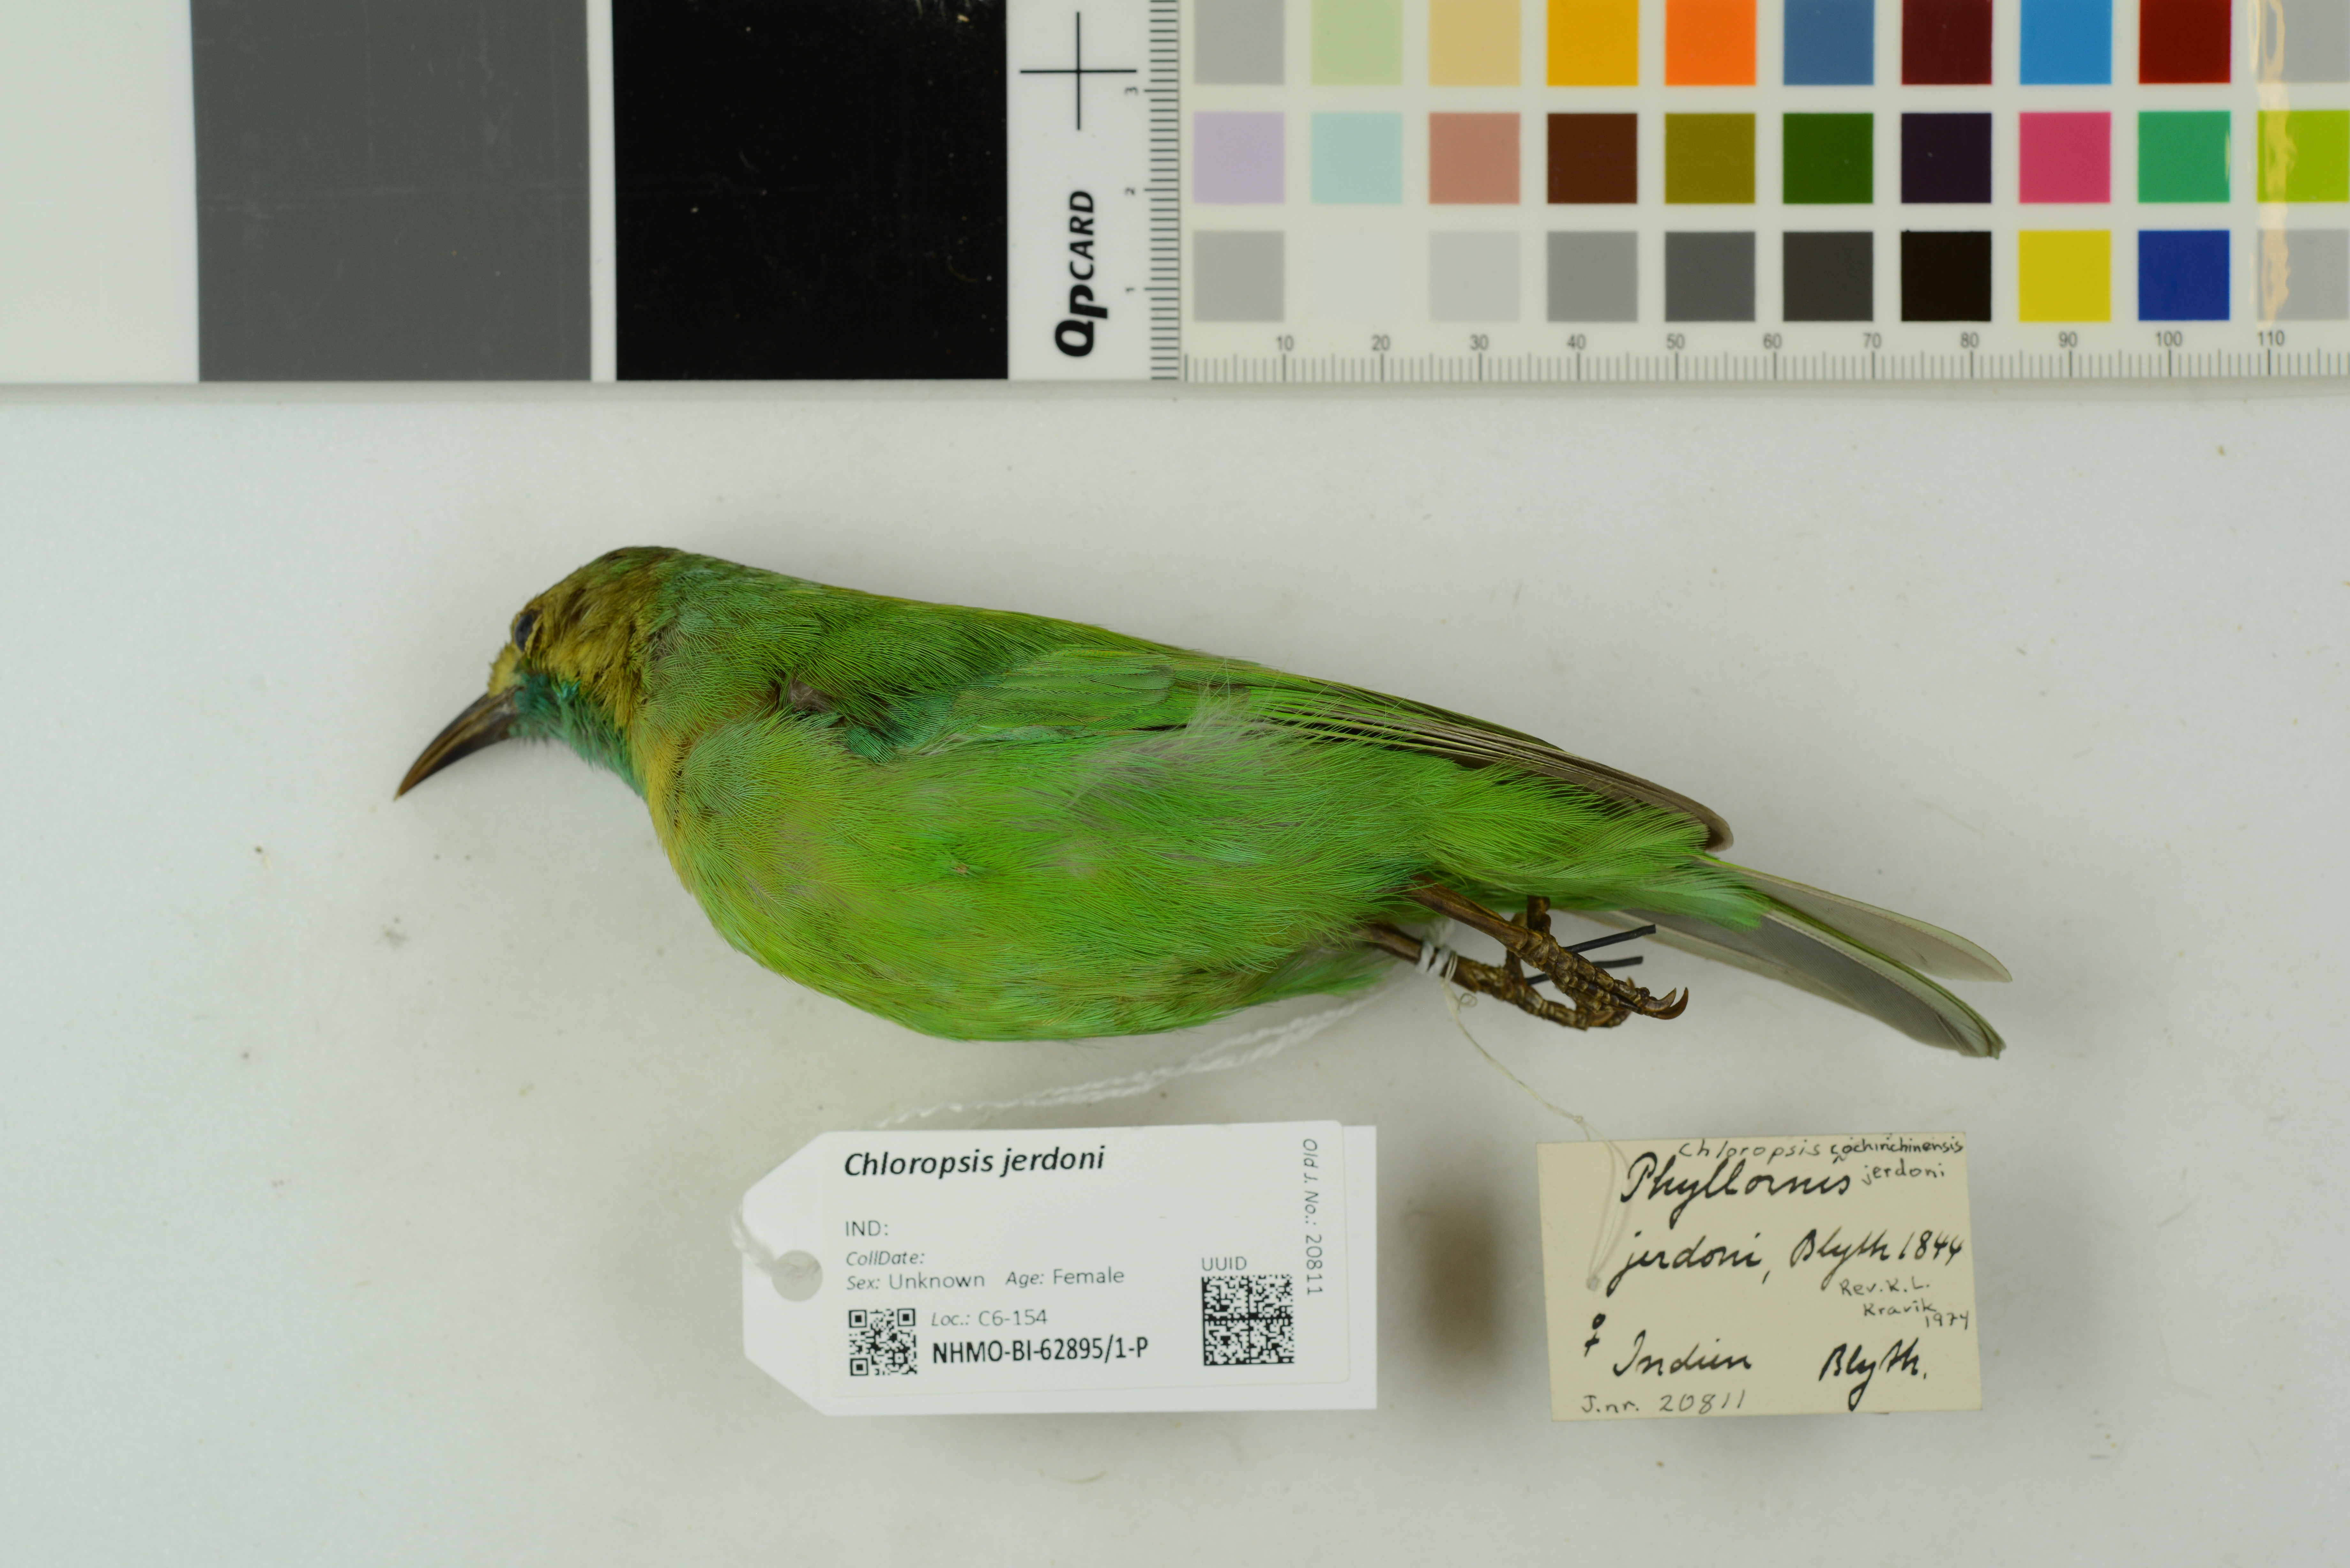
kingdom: Animalia
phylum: Chordata
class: Aves
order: Passeriformes
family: Chloropseidae
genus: Chloropsis
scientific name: Chloropsis jerdoni
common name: Jerdon's leafbird
